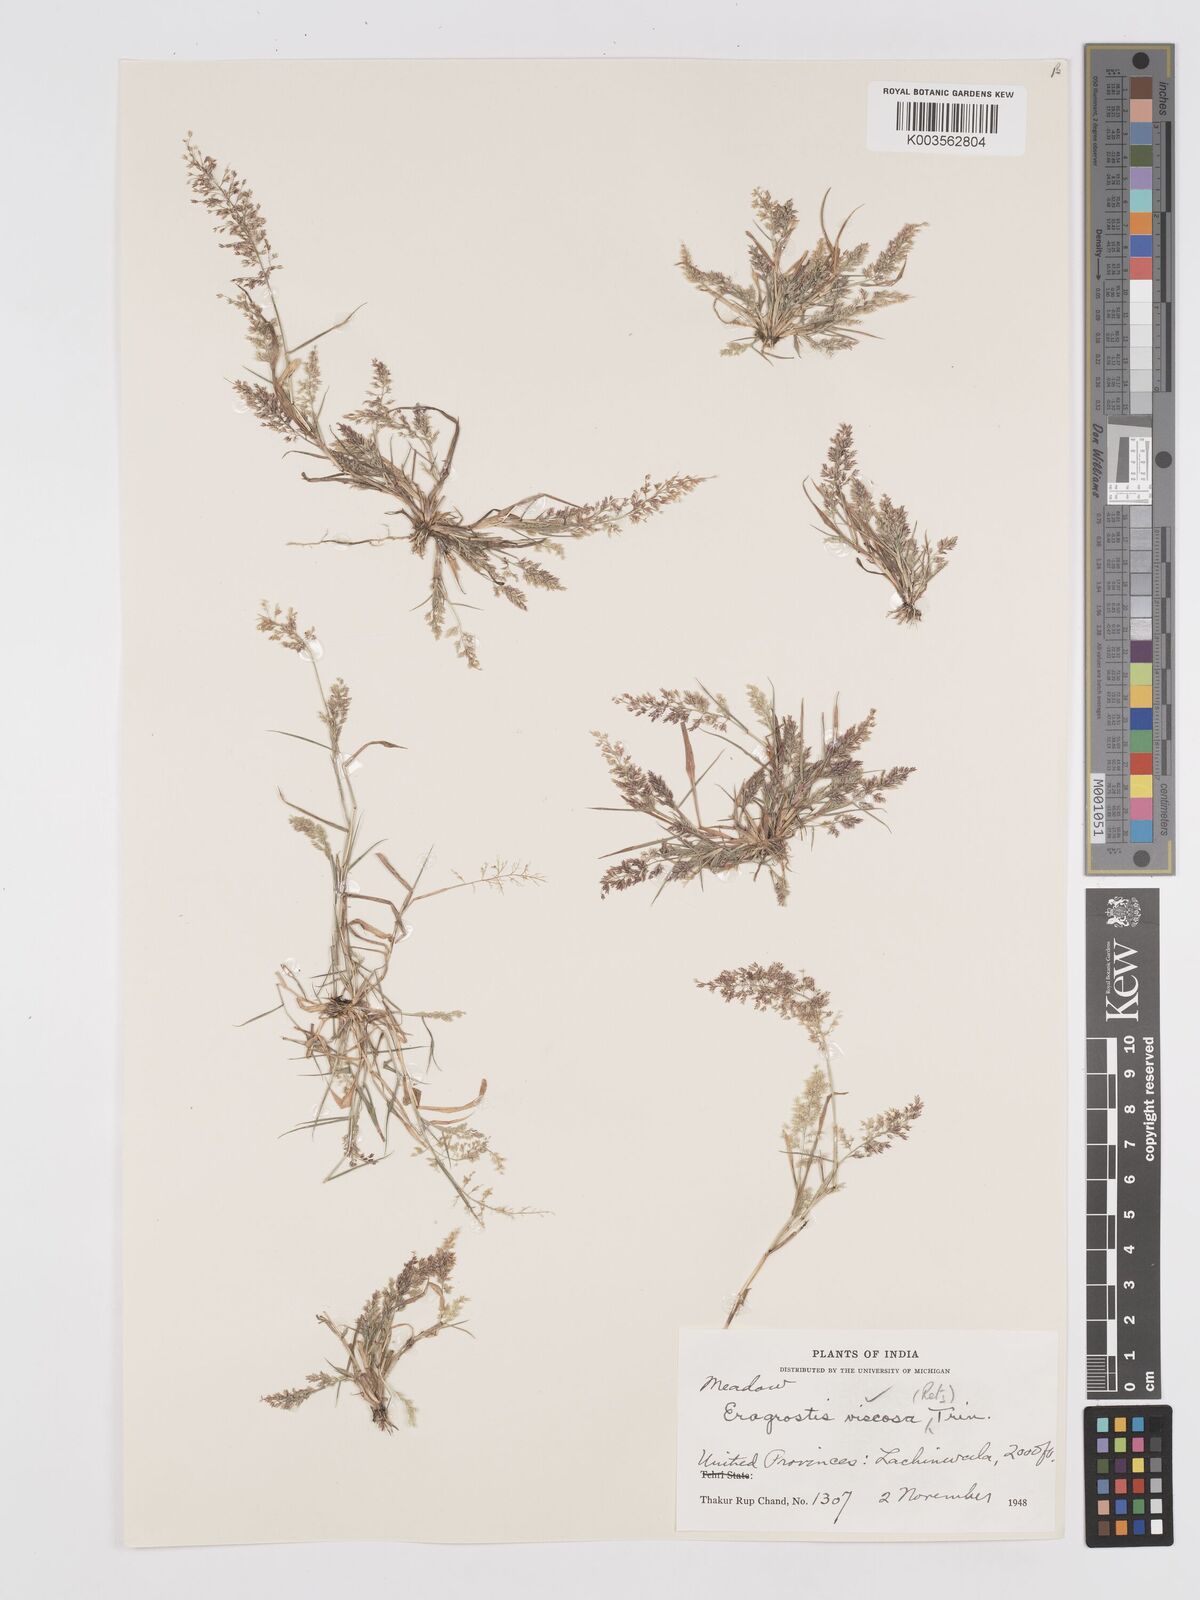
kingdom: Plantae
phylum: Tracheophyta
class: Liliopsida
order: Poales
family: Poaceae
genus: Eragrostis
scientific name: Eragrostis viscosa
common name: Sticky love grass
